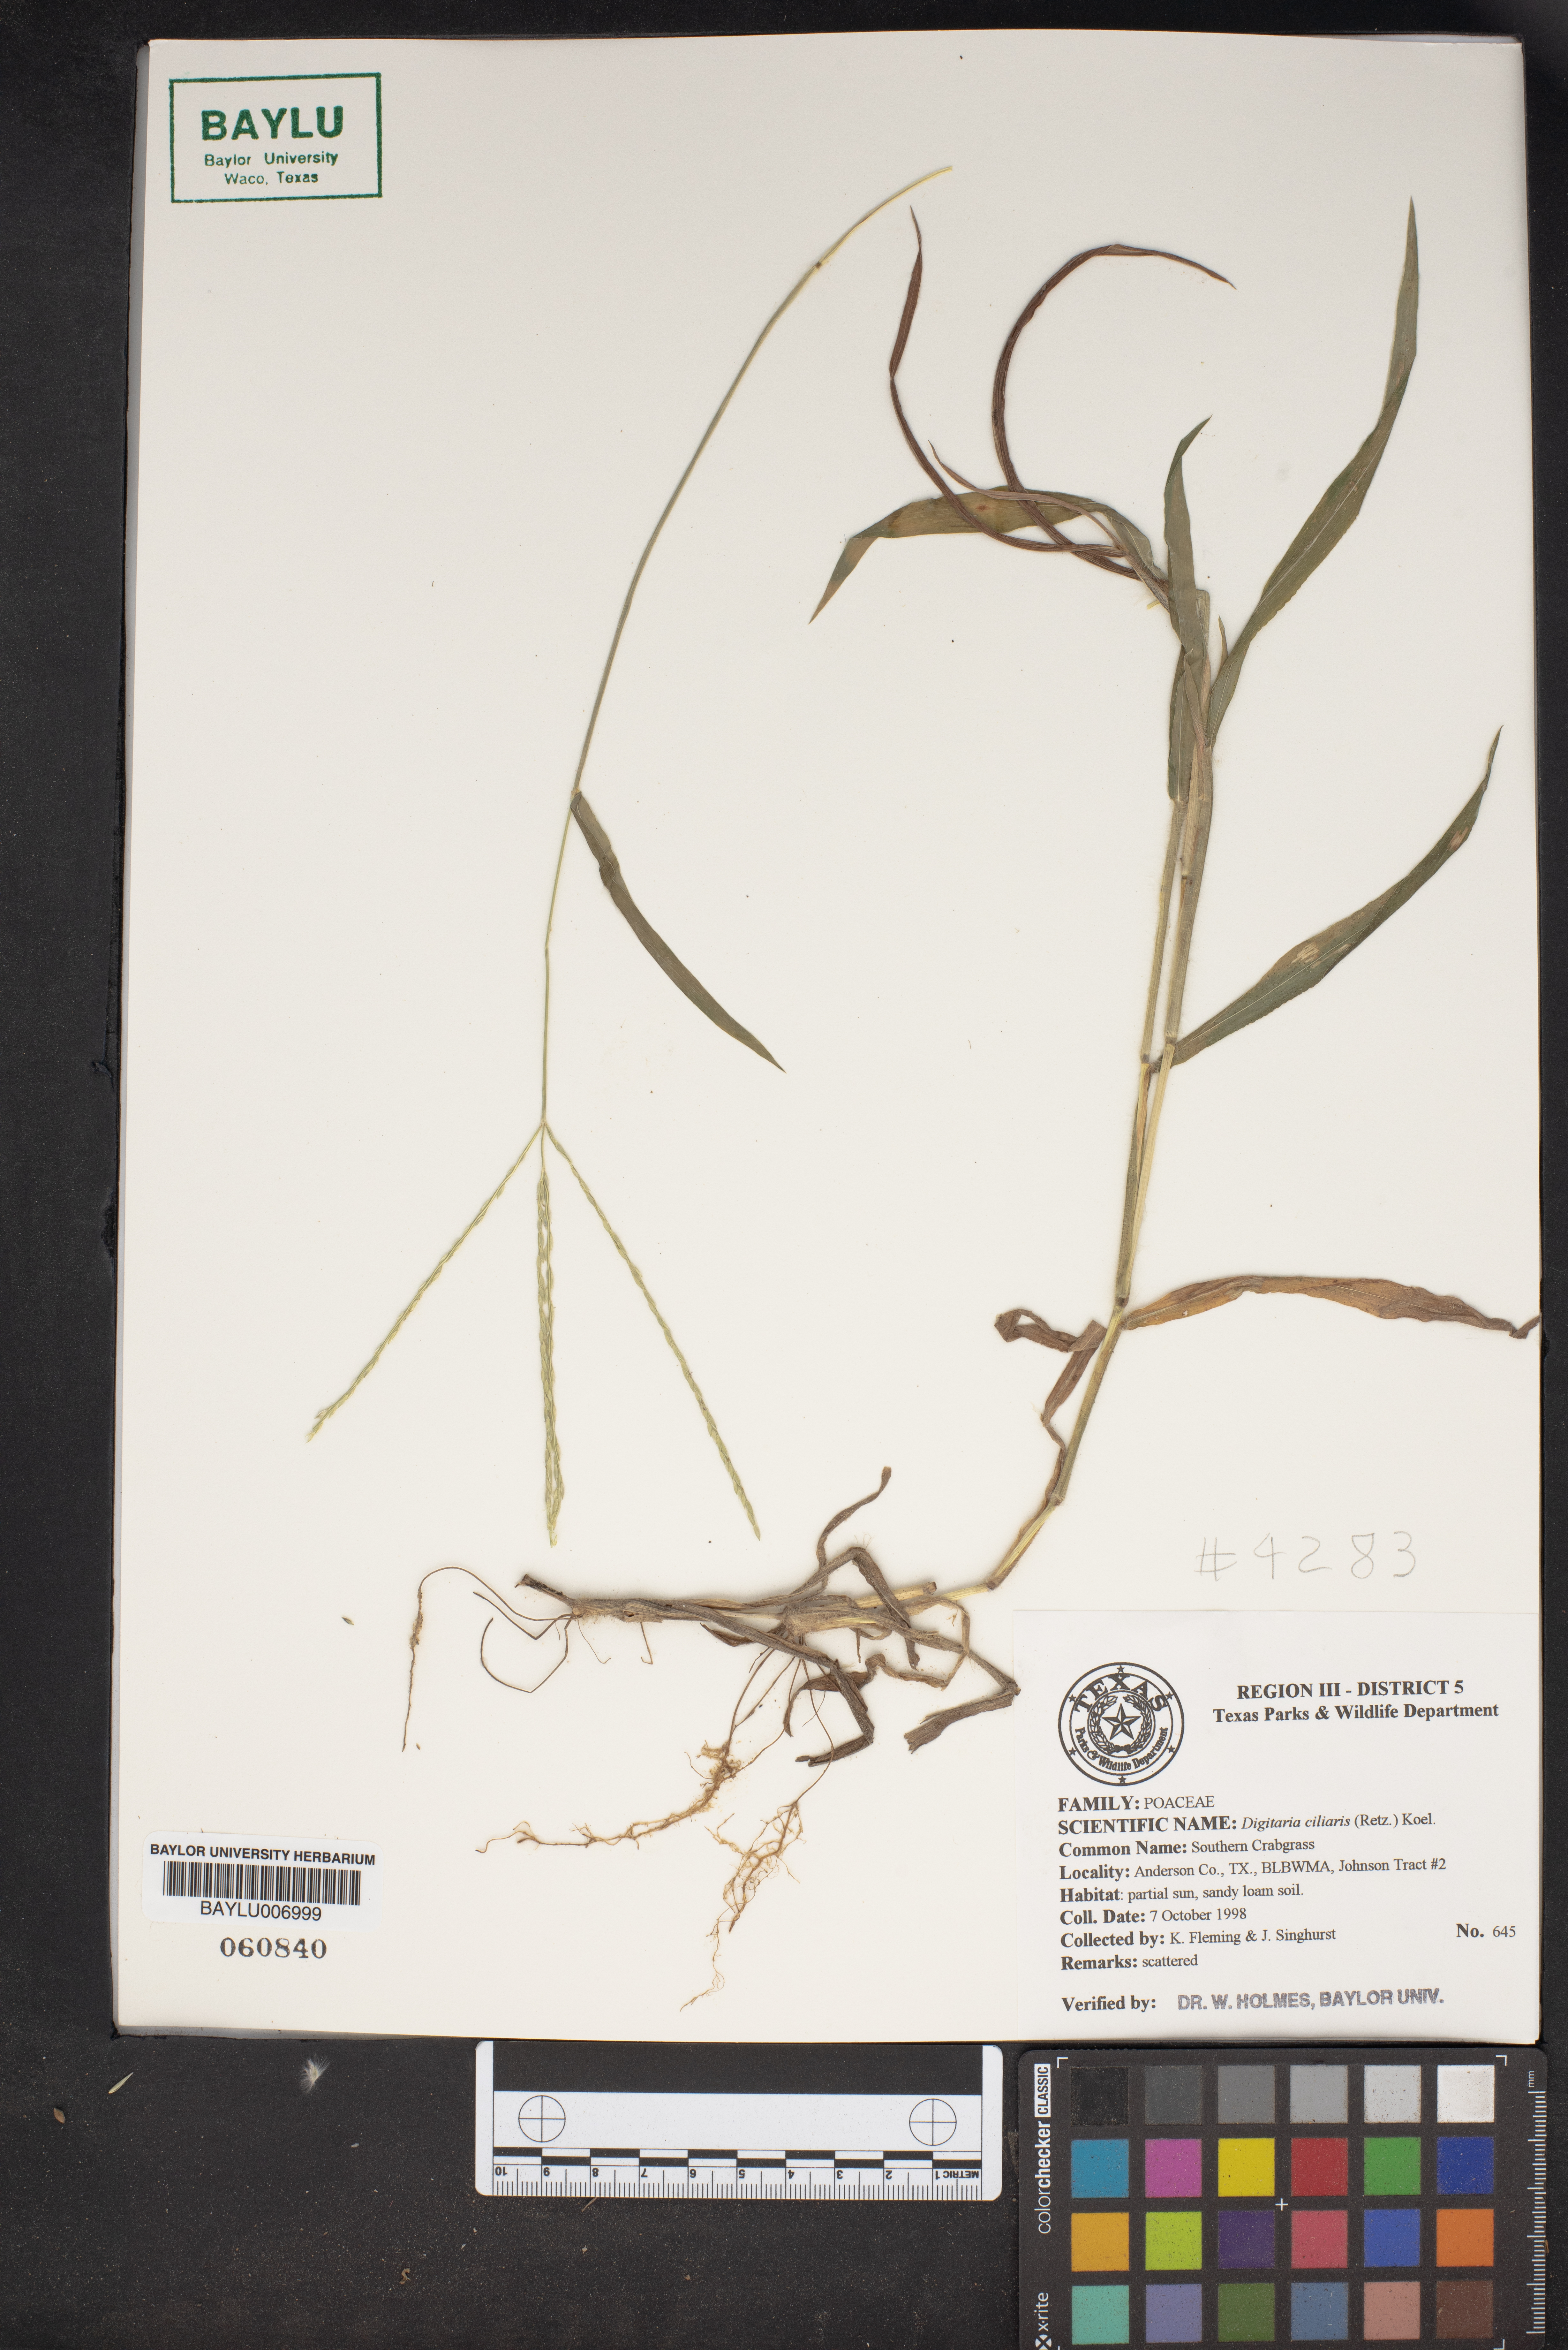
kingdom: Plantae
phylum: Tracheophyta
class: Liliopsida
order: Poales
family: Poaceae
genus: Digitaria
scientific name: Digitaria ciliaris
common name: Tropical finger-grass
